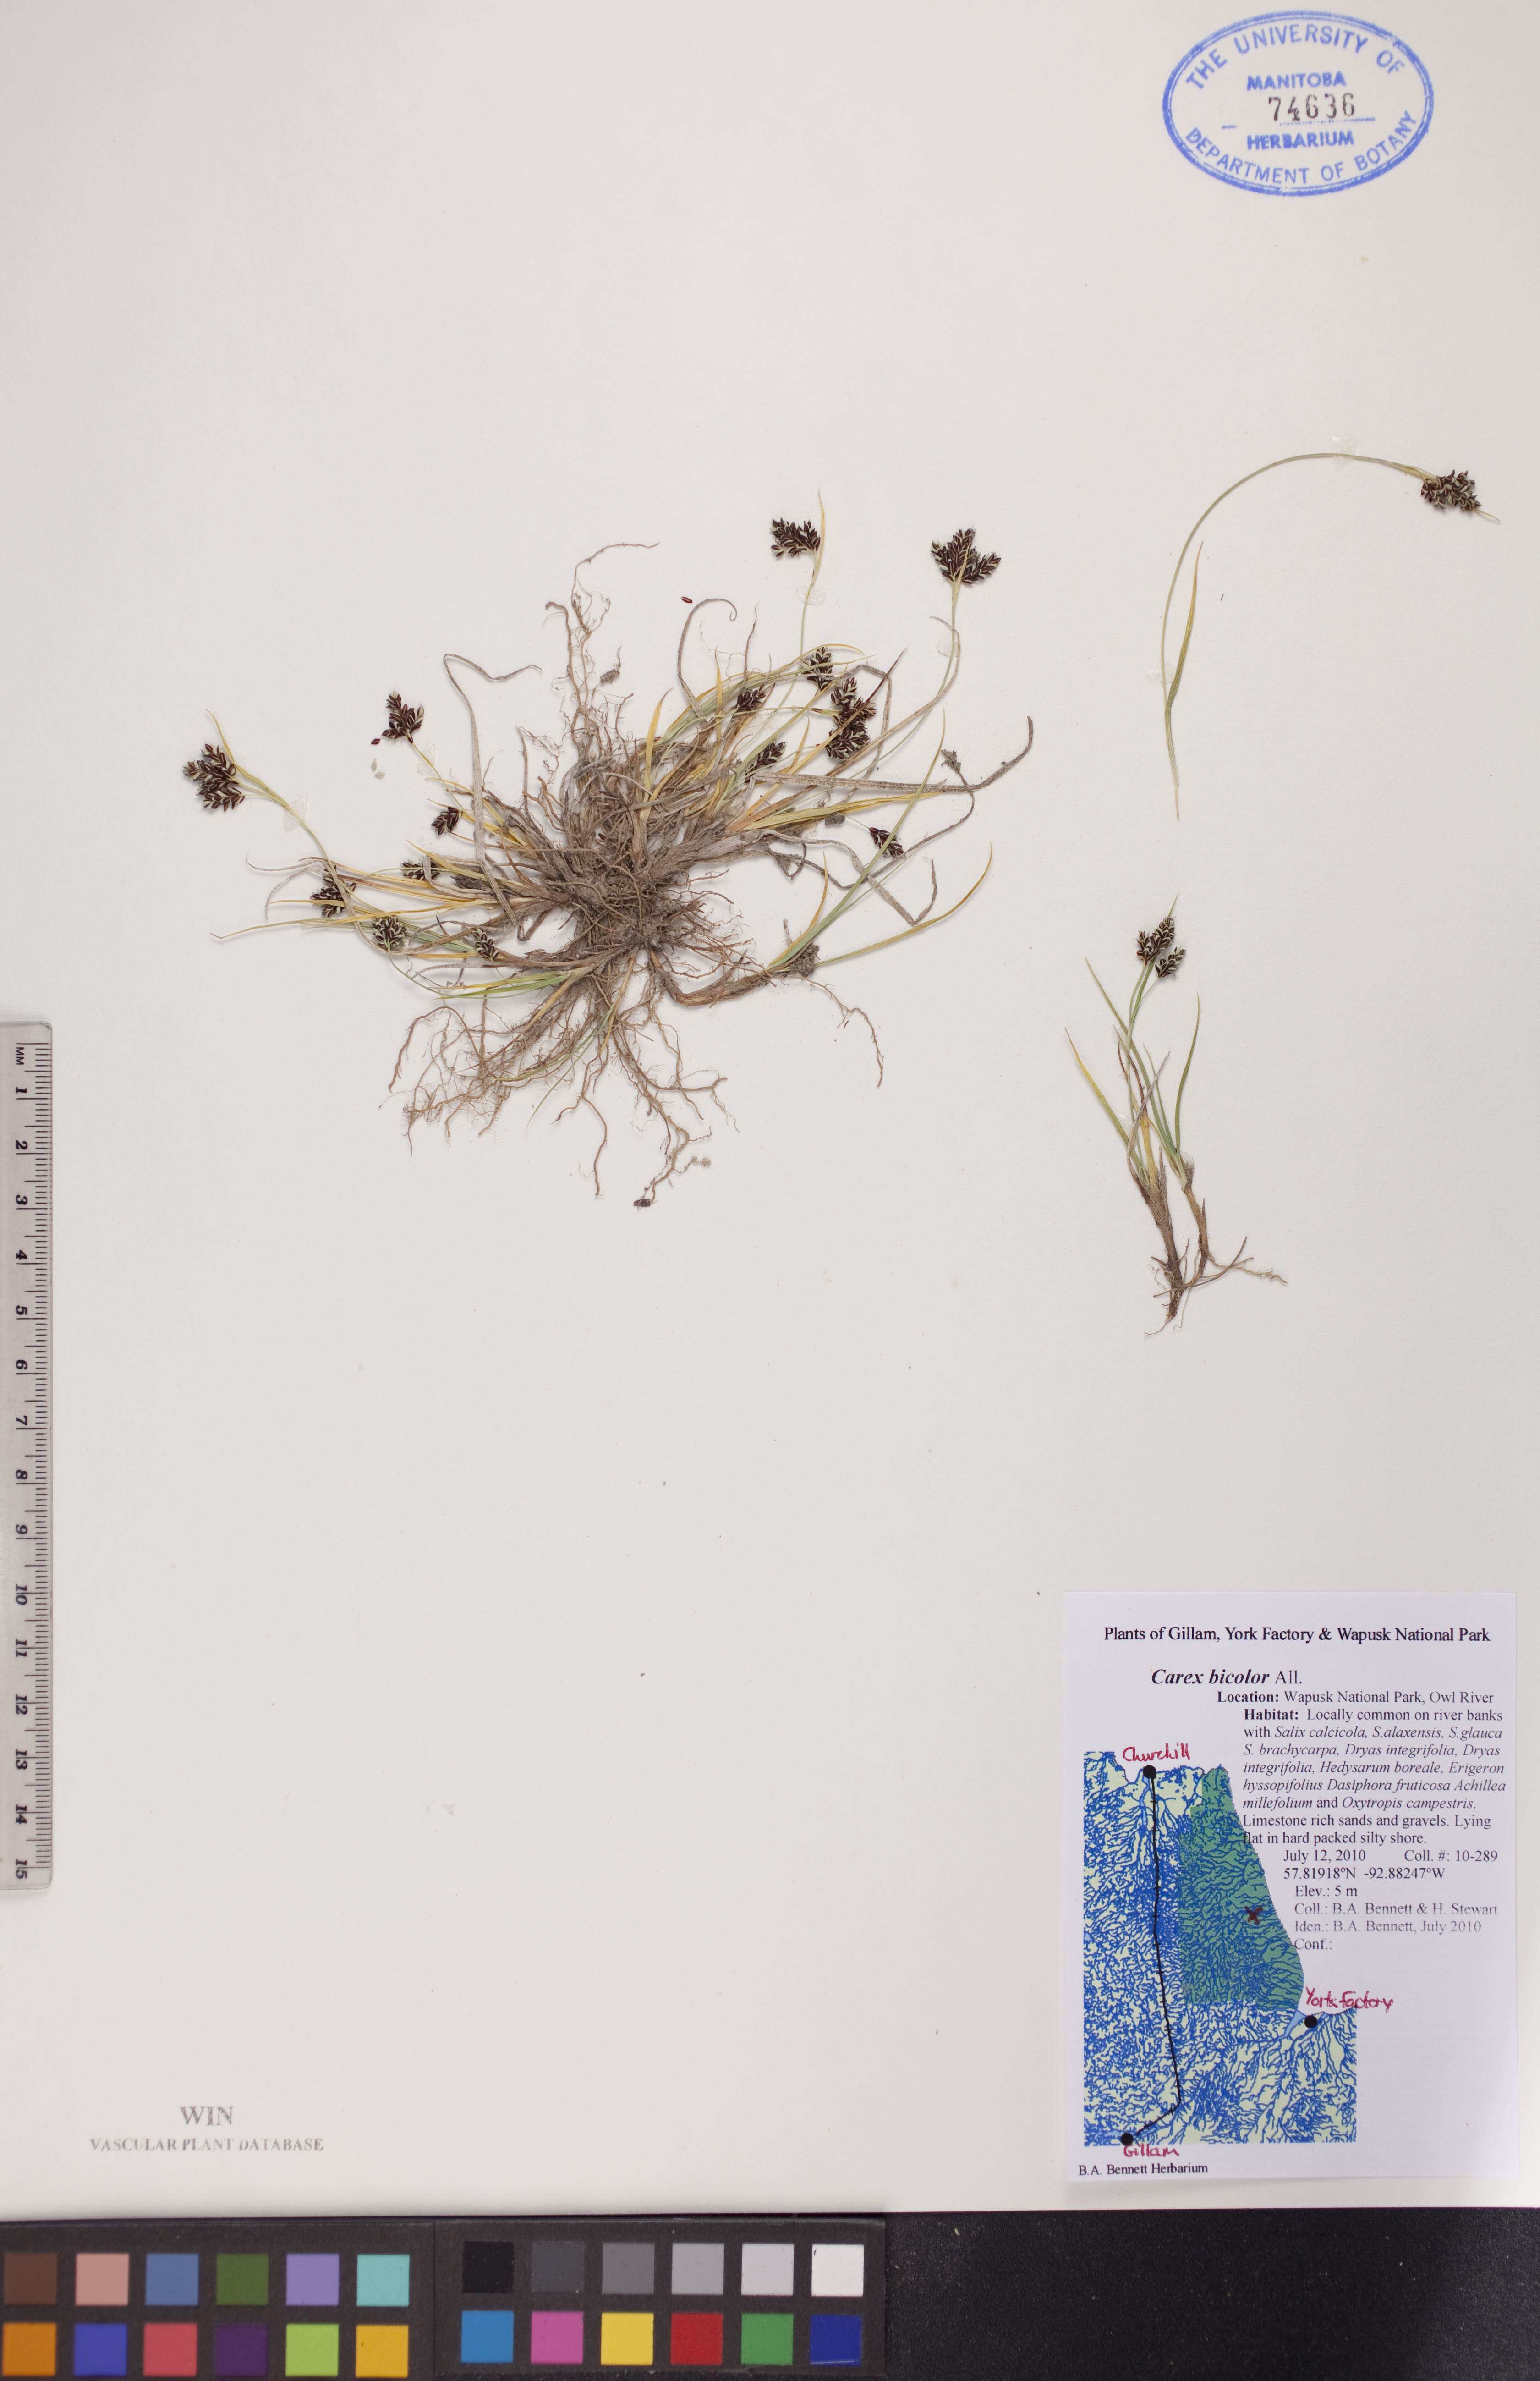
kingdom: Plantae
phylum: Tracheophyta
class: Liliopsida
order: Poales
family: Cyperaceae
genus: Carex
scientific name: Carex bicolor
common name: Bicoloured sedge
